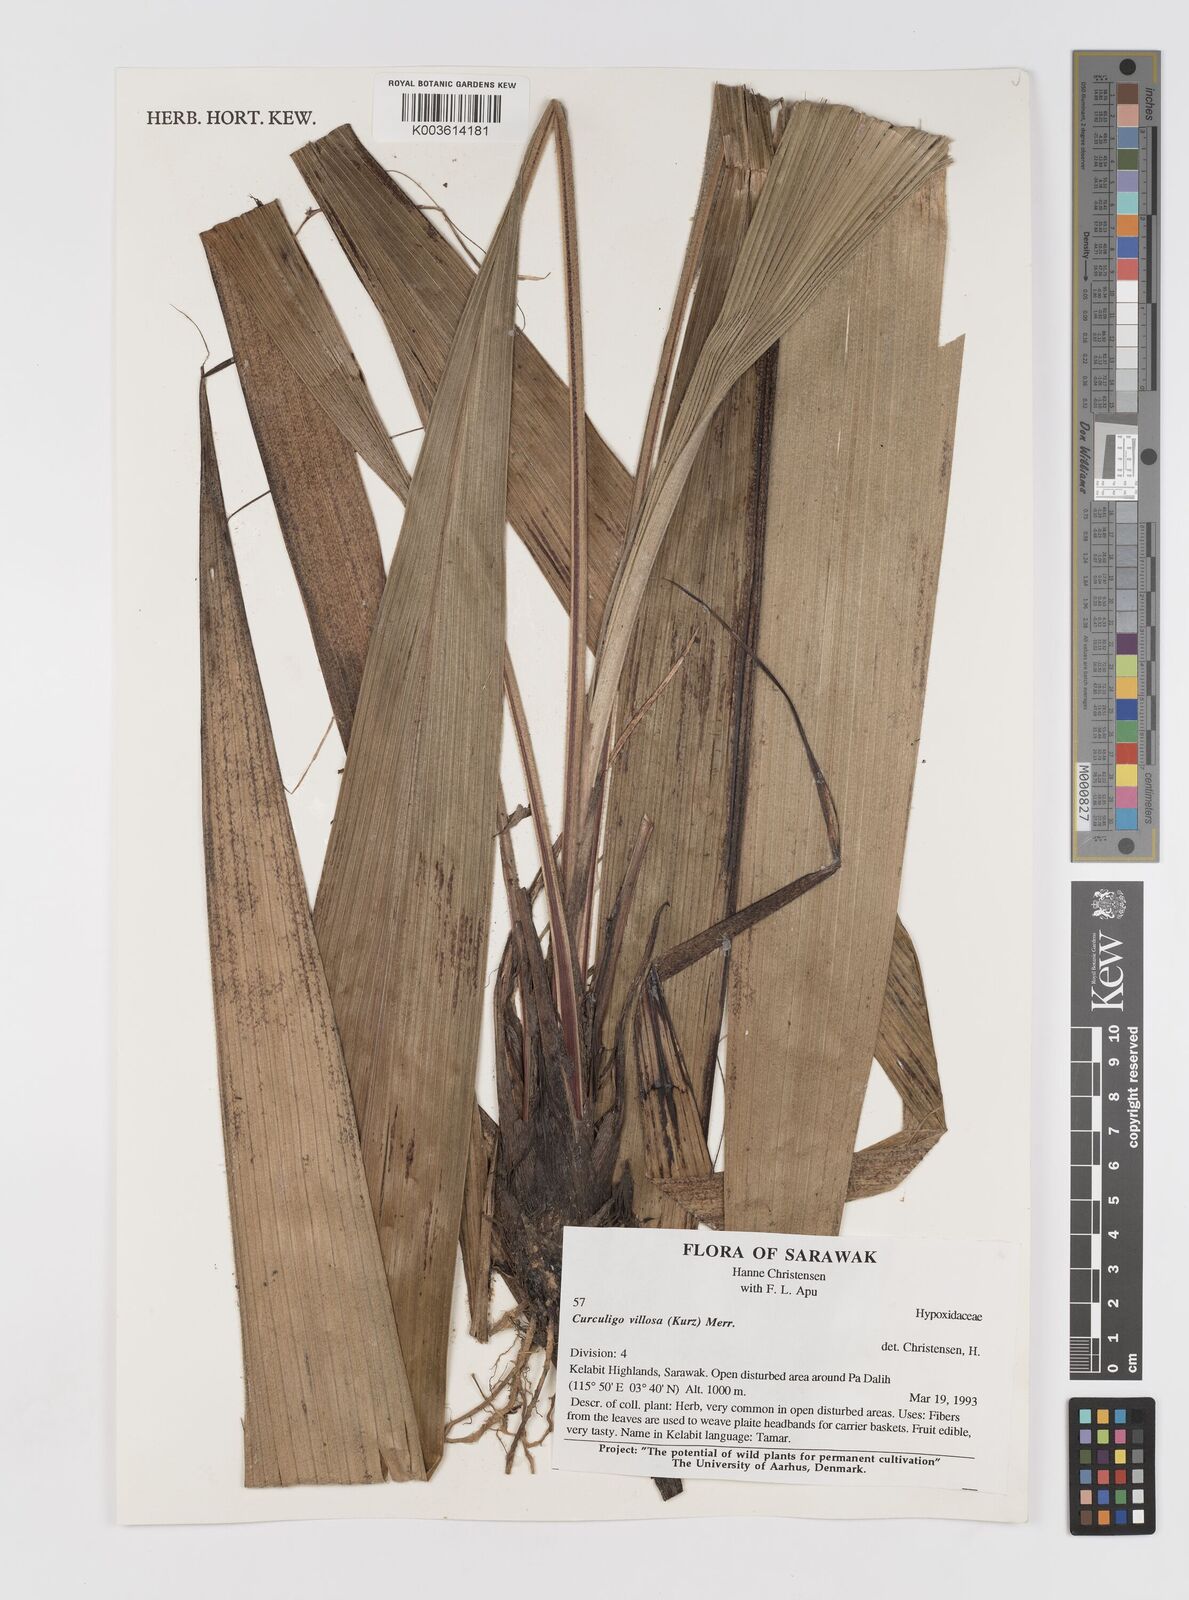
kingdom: Plantae
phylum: Tracheophyta
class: Liliopsida
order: Asparagales
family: Hypoxidaceae
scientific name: Hypoxidaceae
